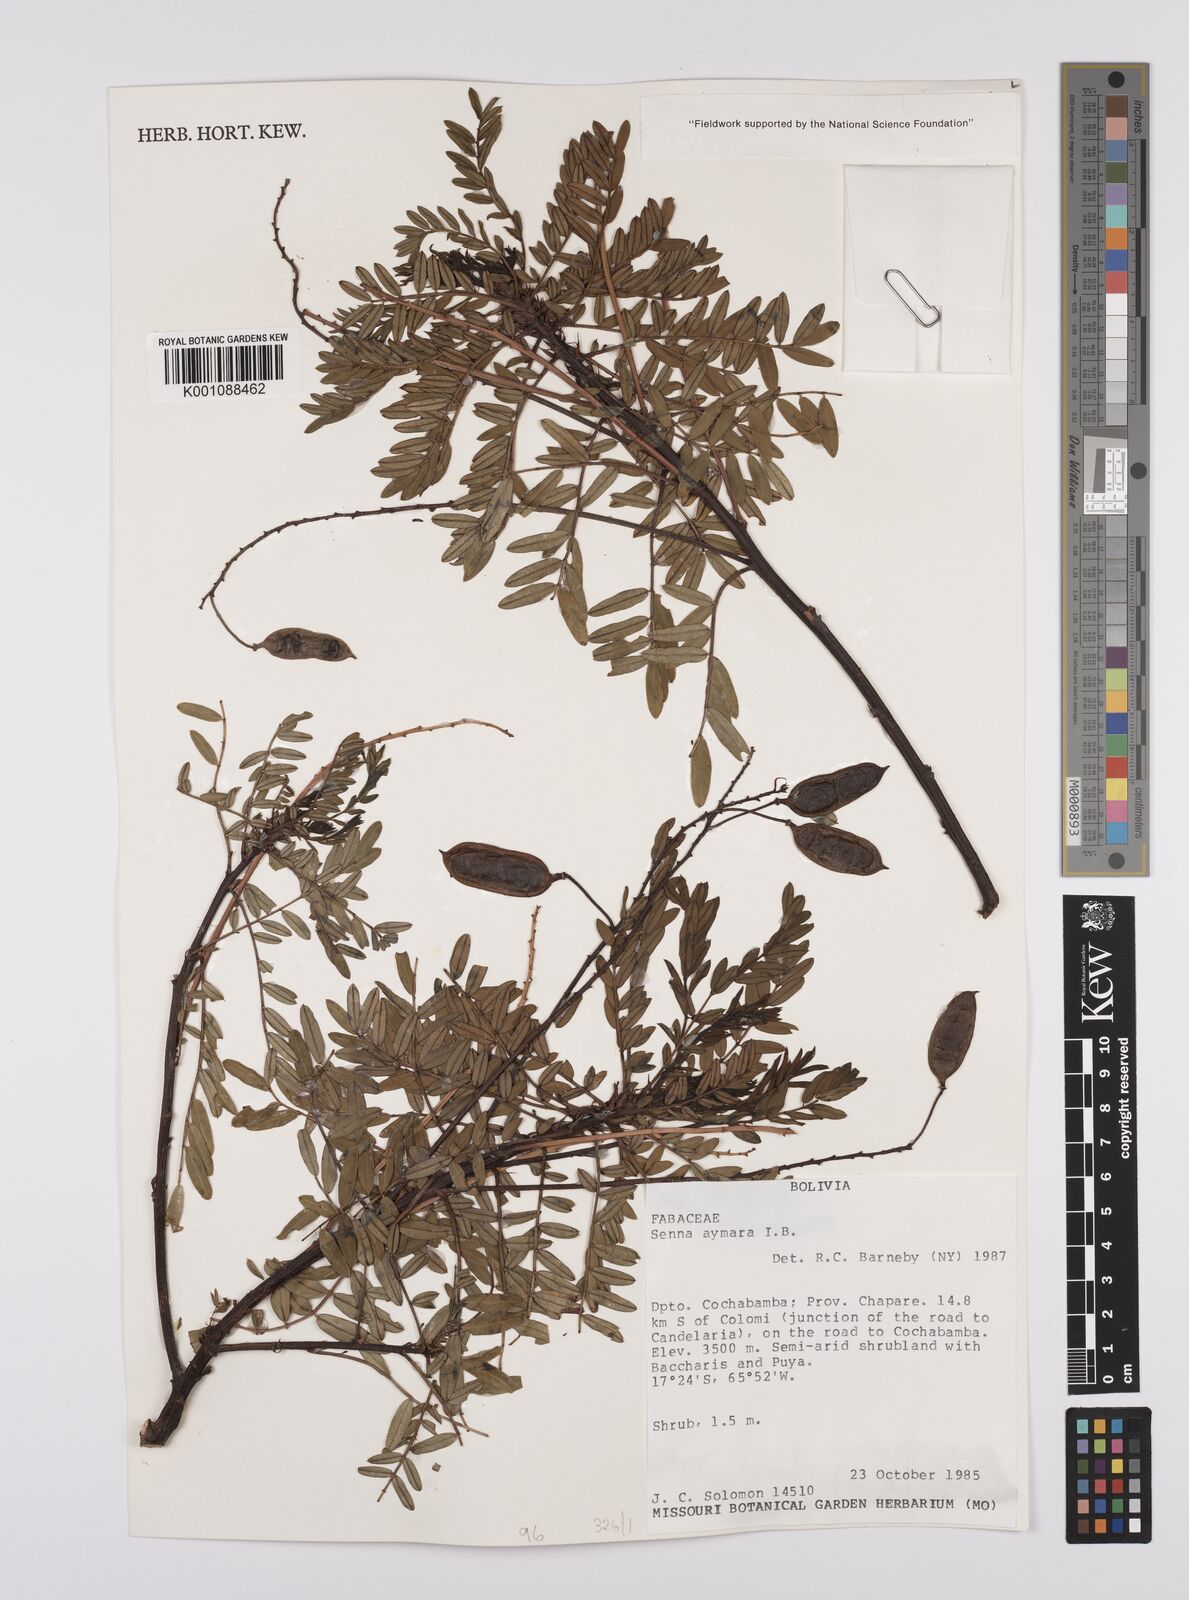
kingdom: Plantae
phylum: Tracheophyta
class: Magnoliopsida
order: Fabales
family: Fabaceae
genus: Senna
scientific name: Senna aymara
